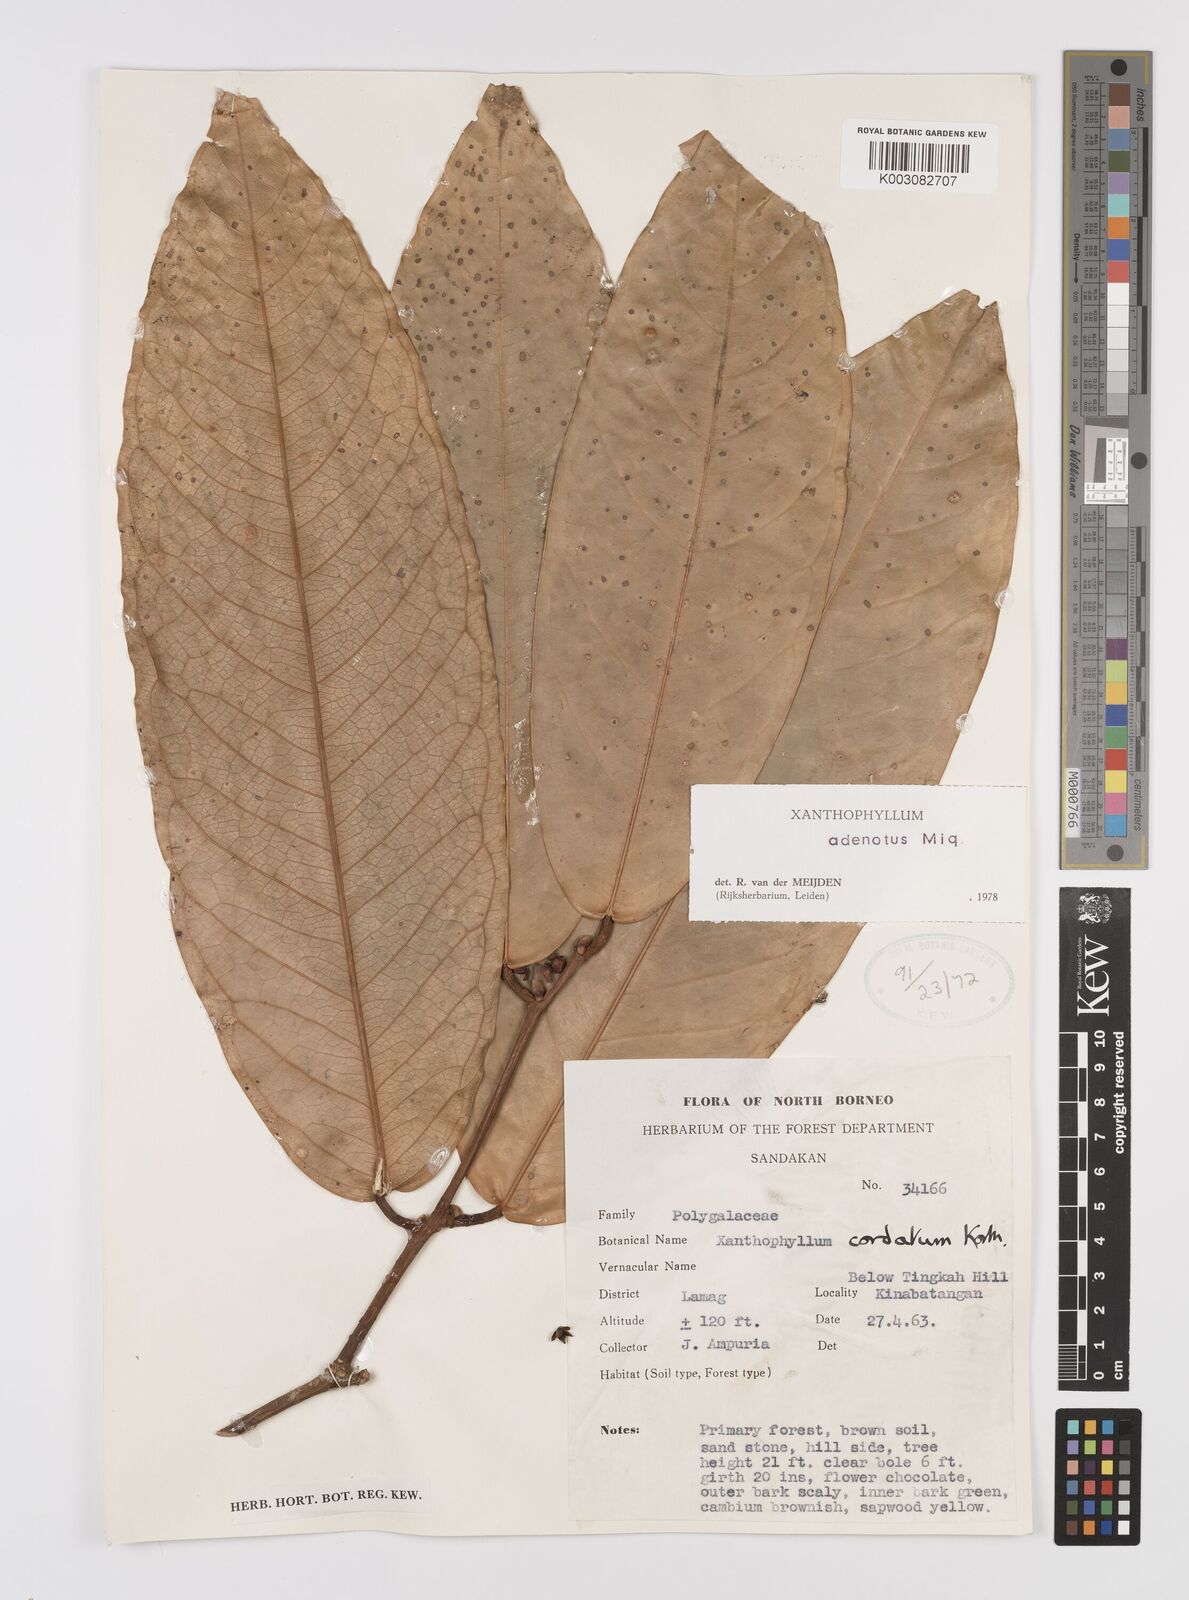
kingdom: Plantae
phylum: Tracheophyta
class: Magnoliopsida
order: Fabales
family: Polygalaceae
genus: Xanthophyllum
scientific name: Xanthophyllum adenotus
